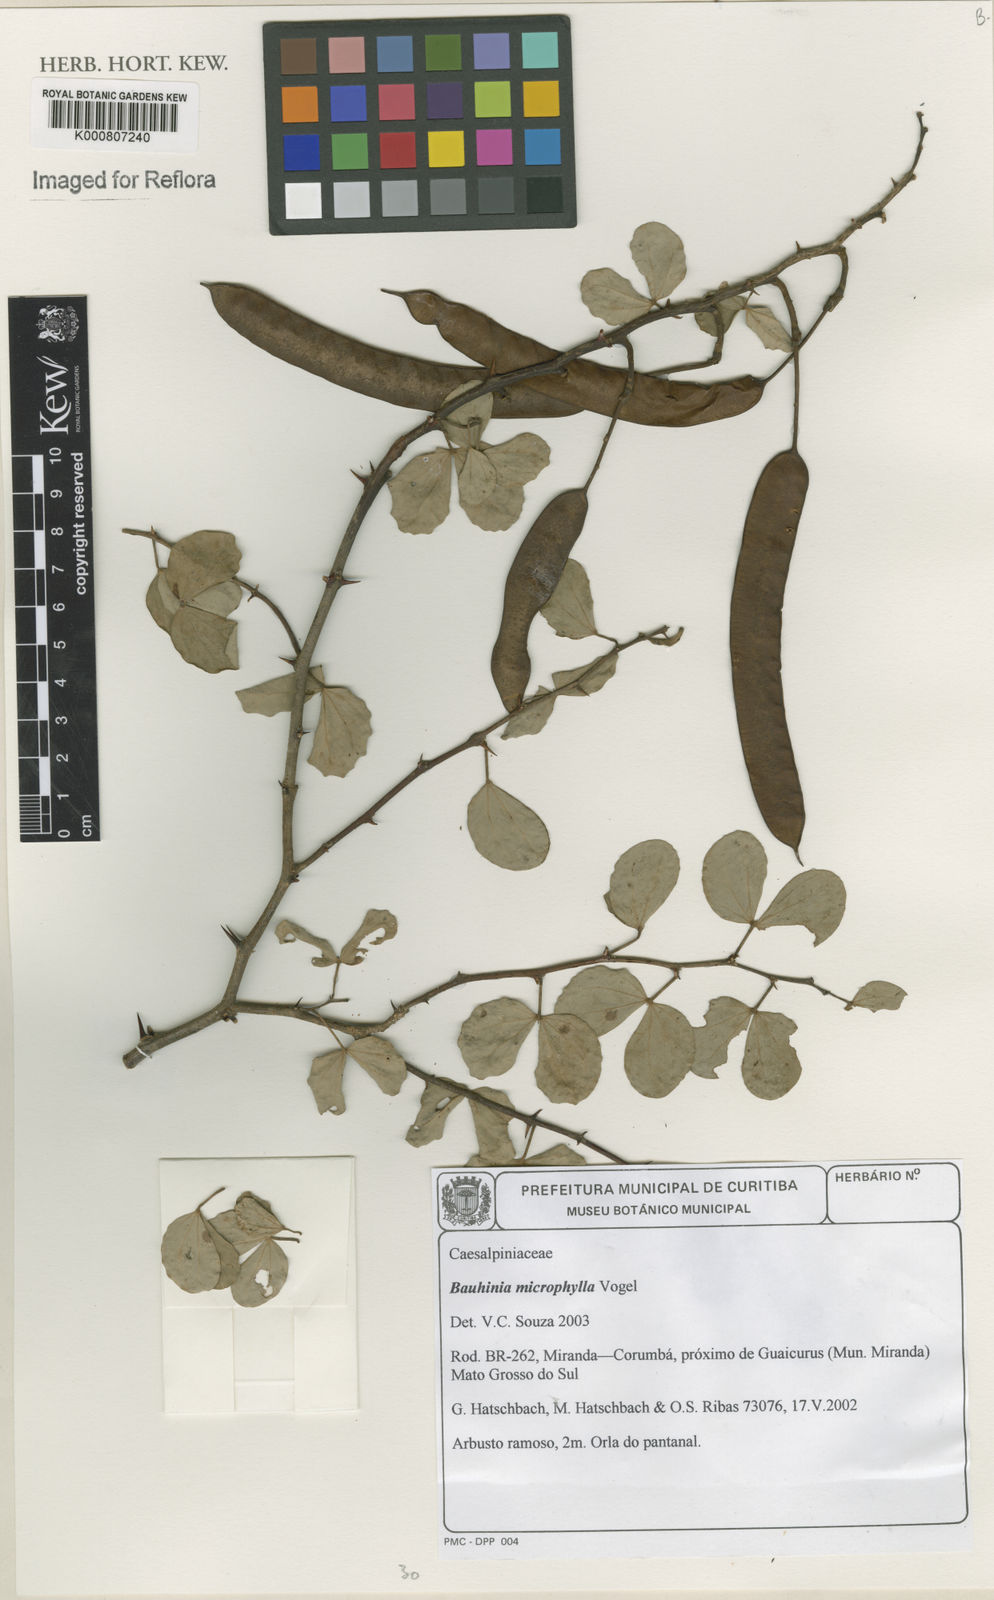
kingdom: Plantae
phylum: Tracheophyta
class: Magnoliopsida
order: Fabales
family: Fabaceae
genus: Bauhinia
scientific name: Bauhinia bauhinioides
